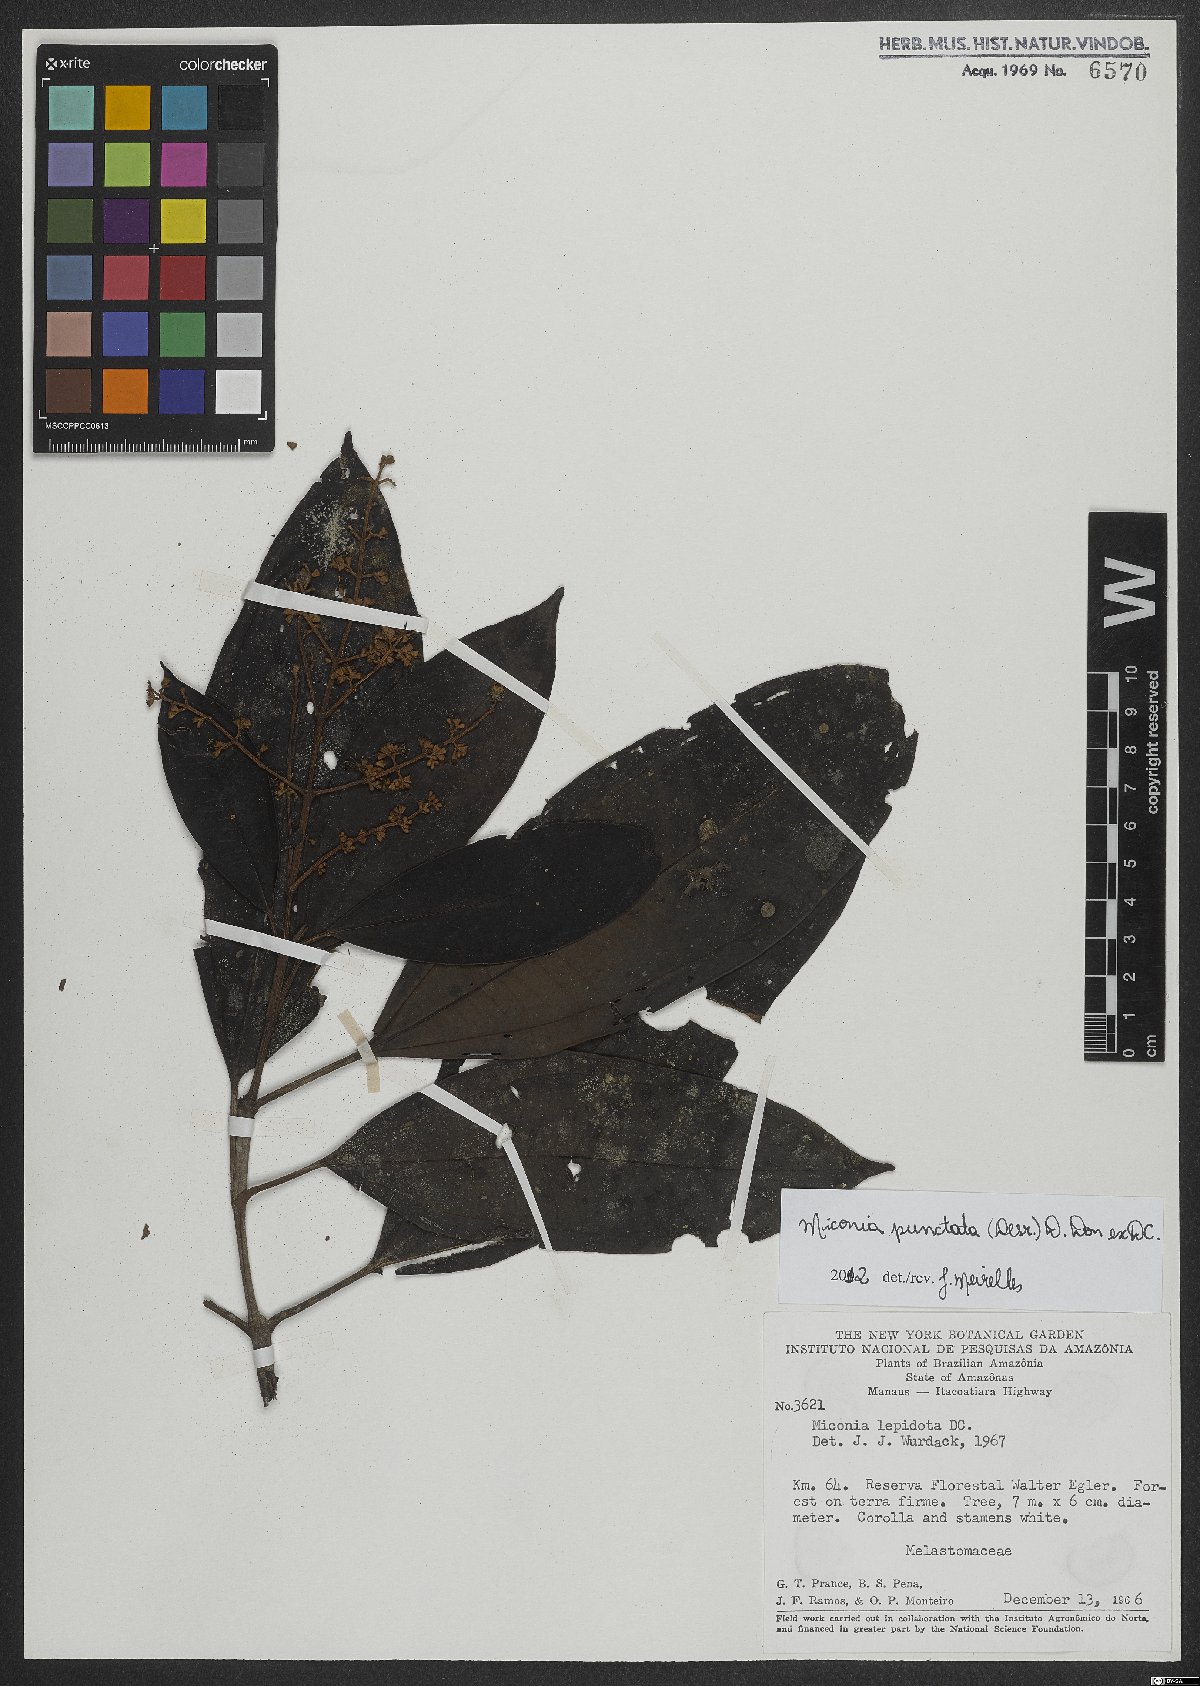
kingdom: Plantae
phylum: Tracheophyta
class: Magnoliopsida
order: Myrtales
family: Melastomataceae
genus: Miconia
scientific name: Miconia punctata
